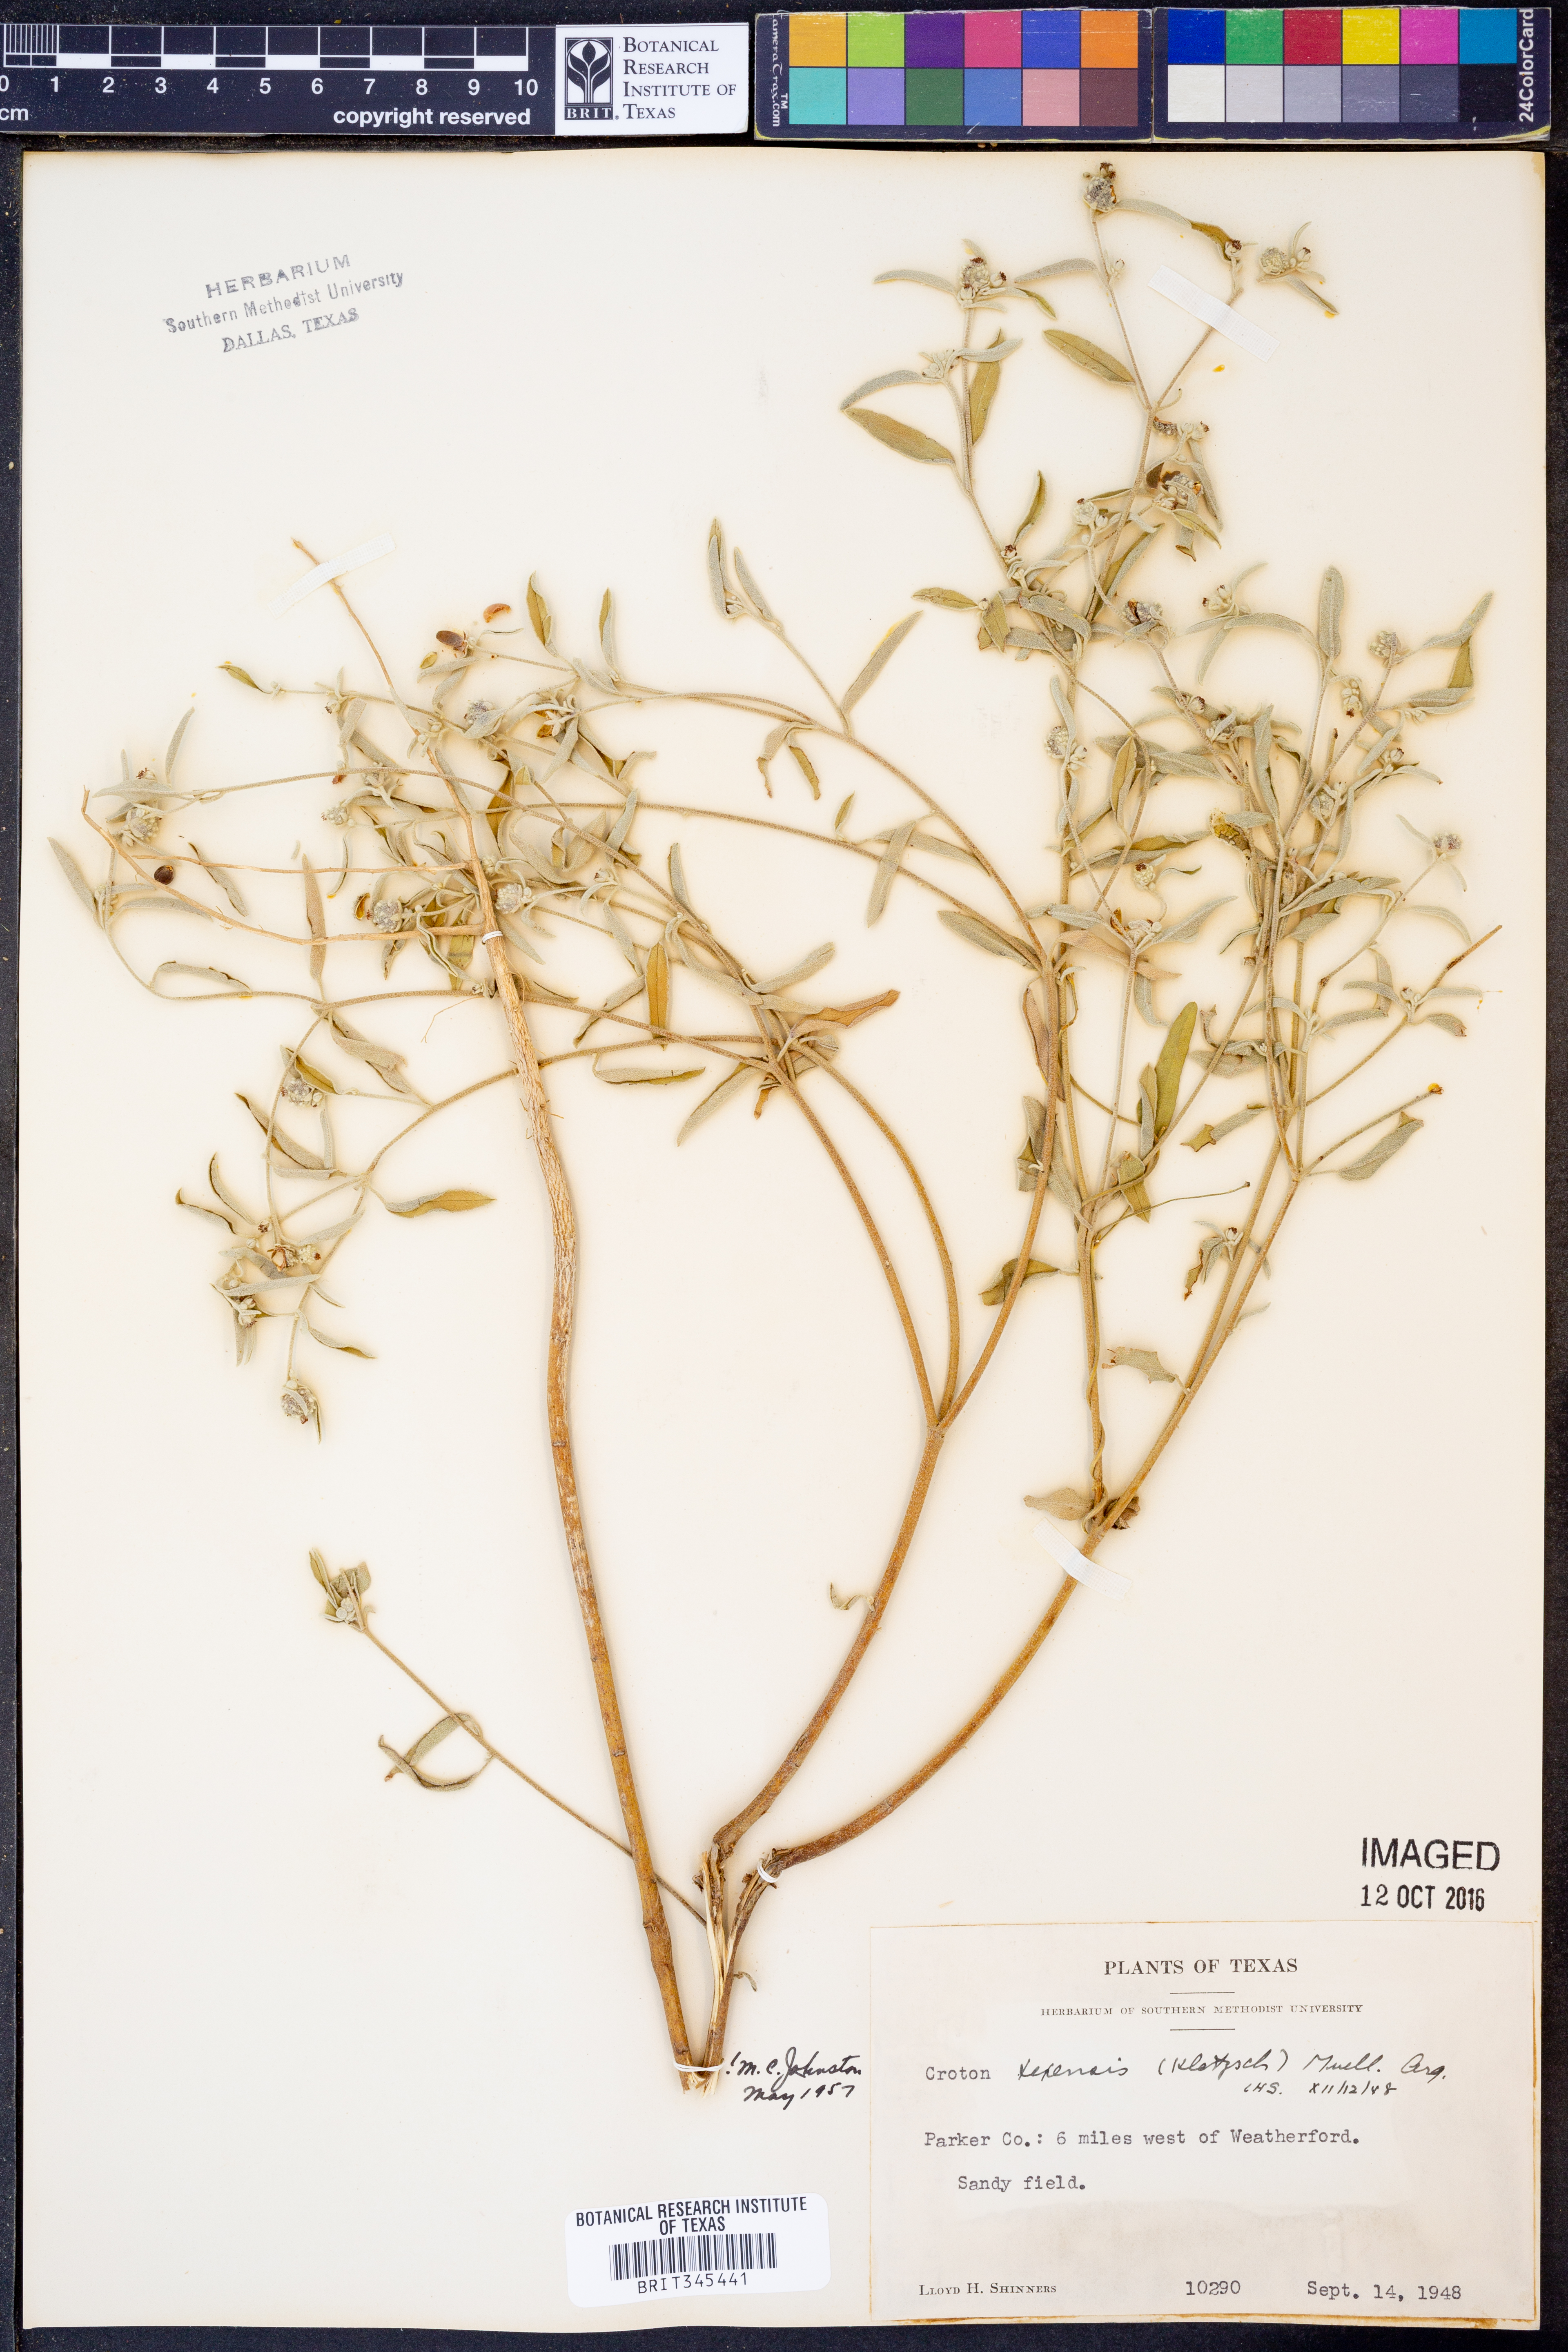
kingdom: Plantae
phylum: Tracheophyta
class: Magnoliopsida
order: Malpighiales
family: Euphorbiaceae
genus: Croton
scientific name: Croton texensis
